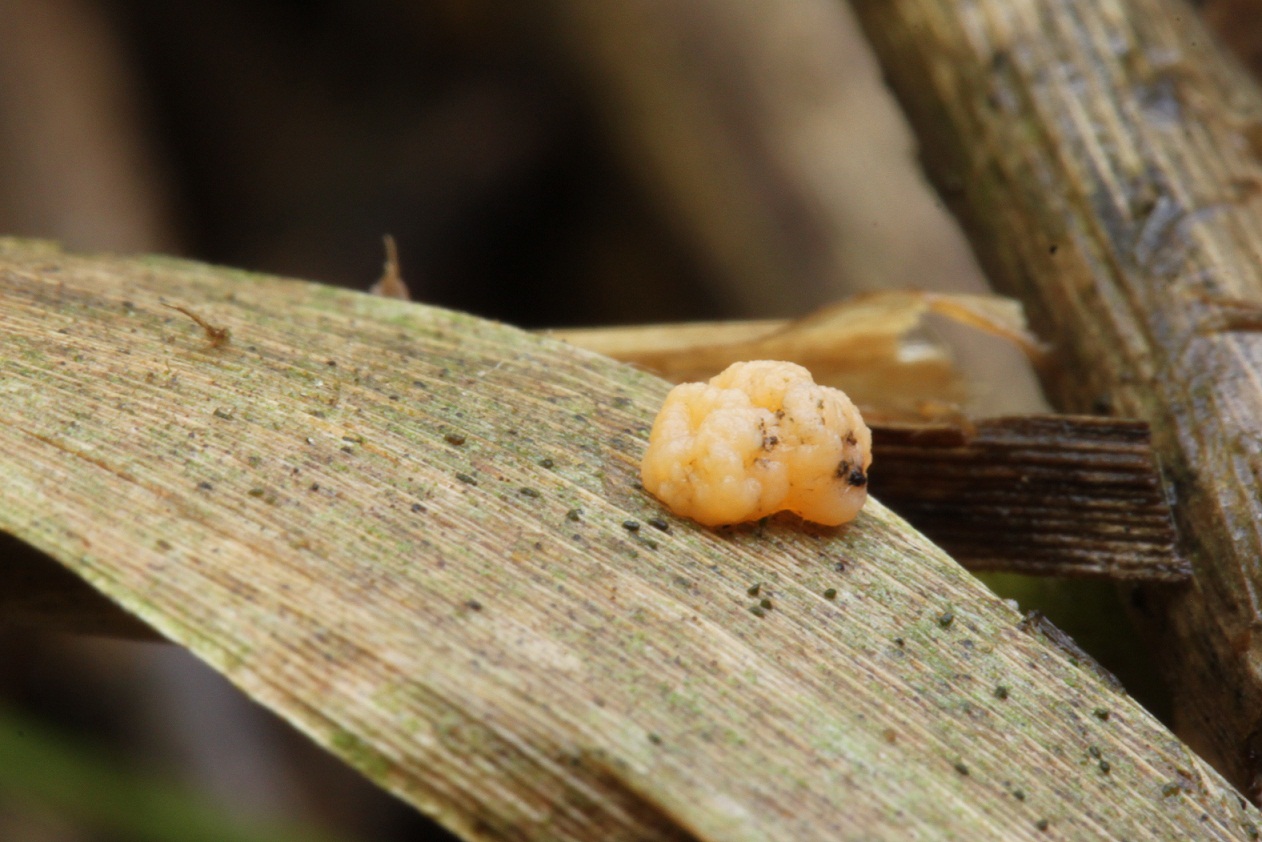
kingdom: Fungi
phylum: Basidiomycota
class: Tremellomycetes
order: Tremellales
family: Rhynchogastremaceae
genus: Tetragoniomyces
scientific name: Tetragoniomyces uliginosus
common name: sklerotie-snyltehjerne
